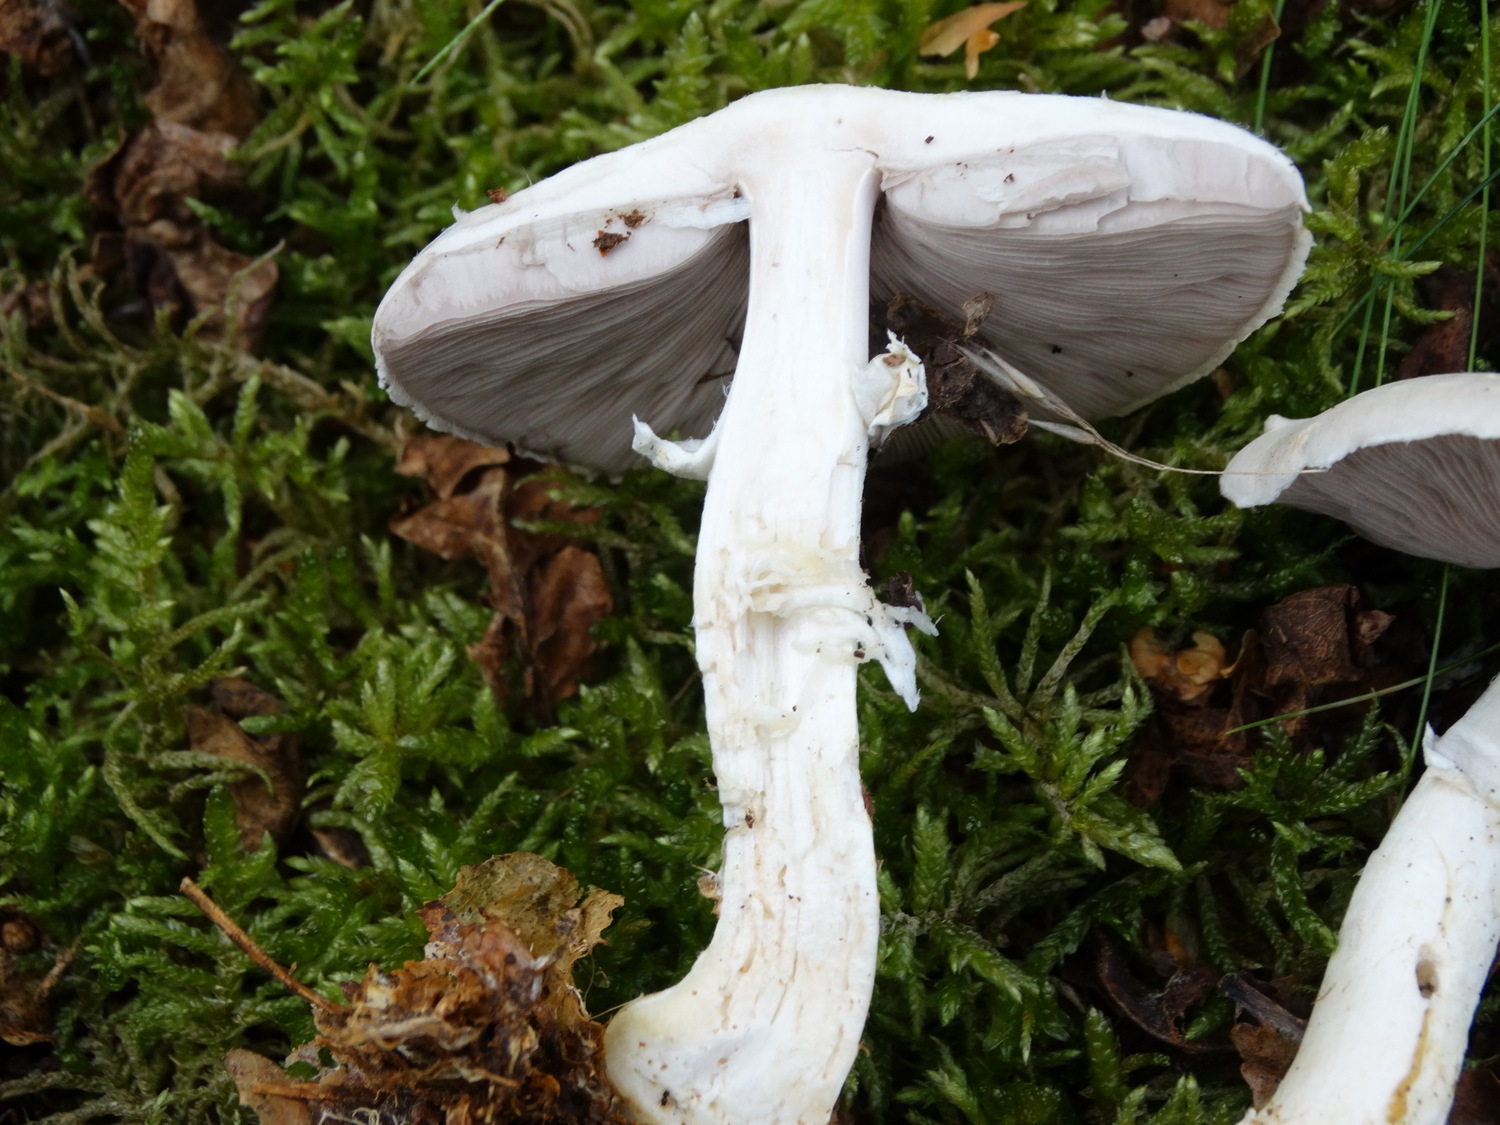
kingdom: Fungi
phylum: Basidiomycota
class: Agaricomycetes
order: Agaricales
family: Agaricaceae
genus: Agaricus
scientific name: Agaricus sylvicola
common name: skiveknoldet champignon
